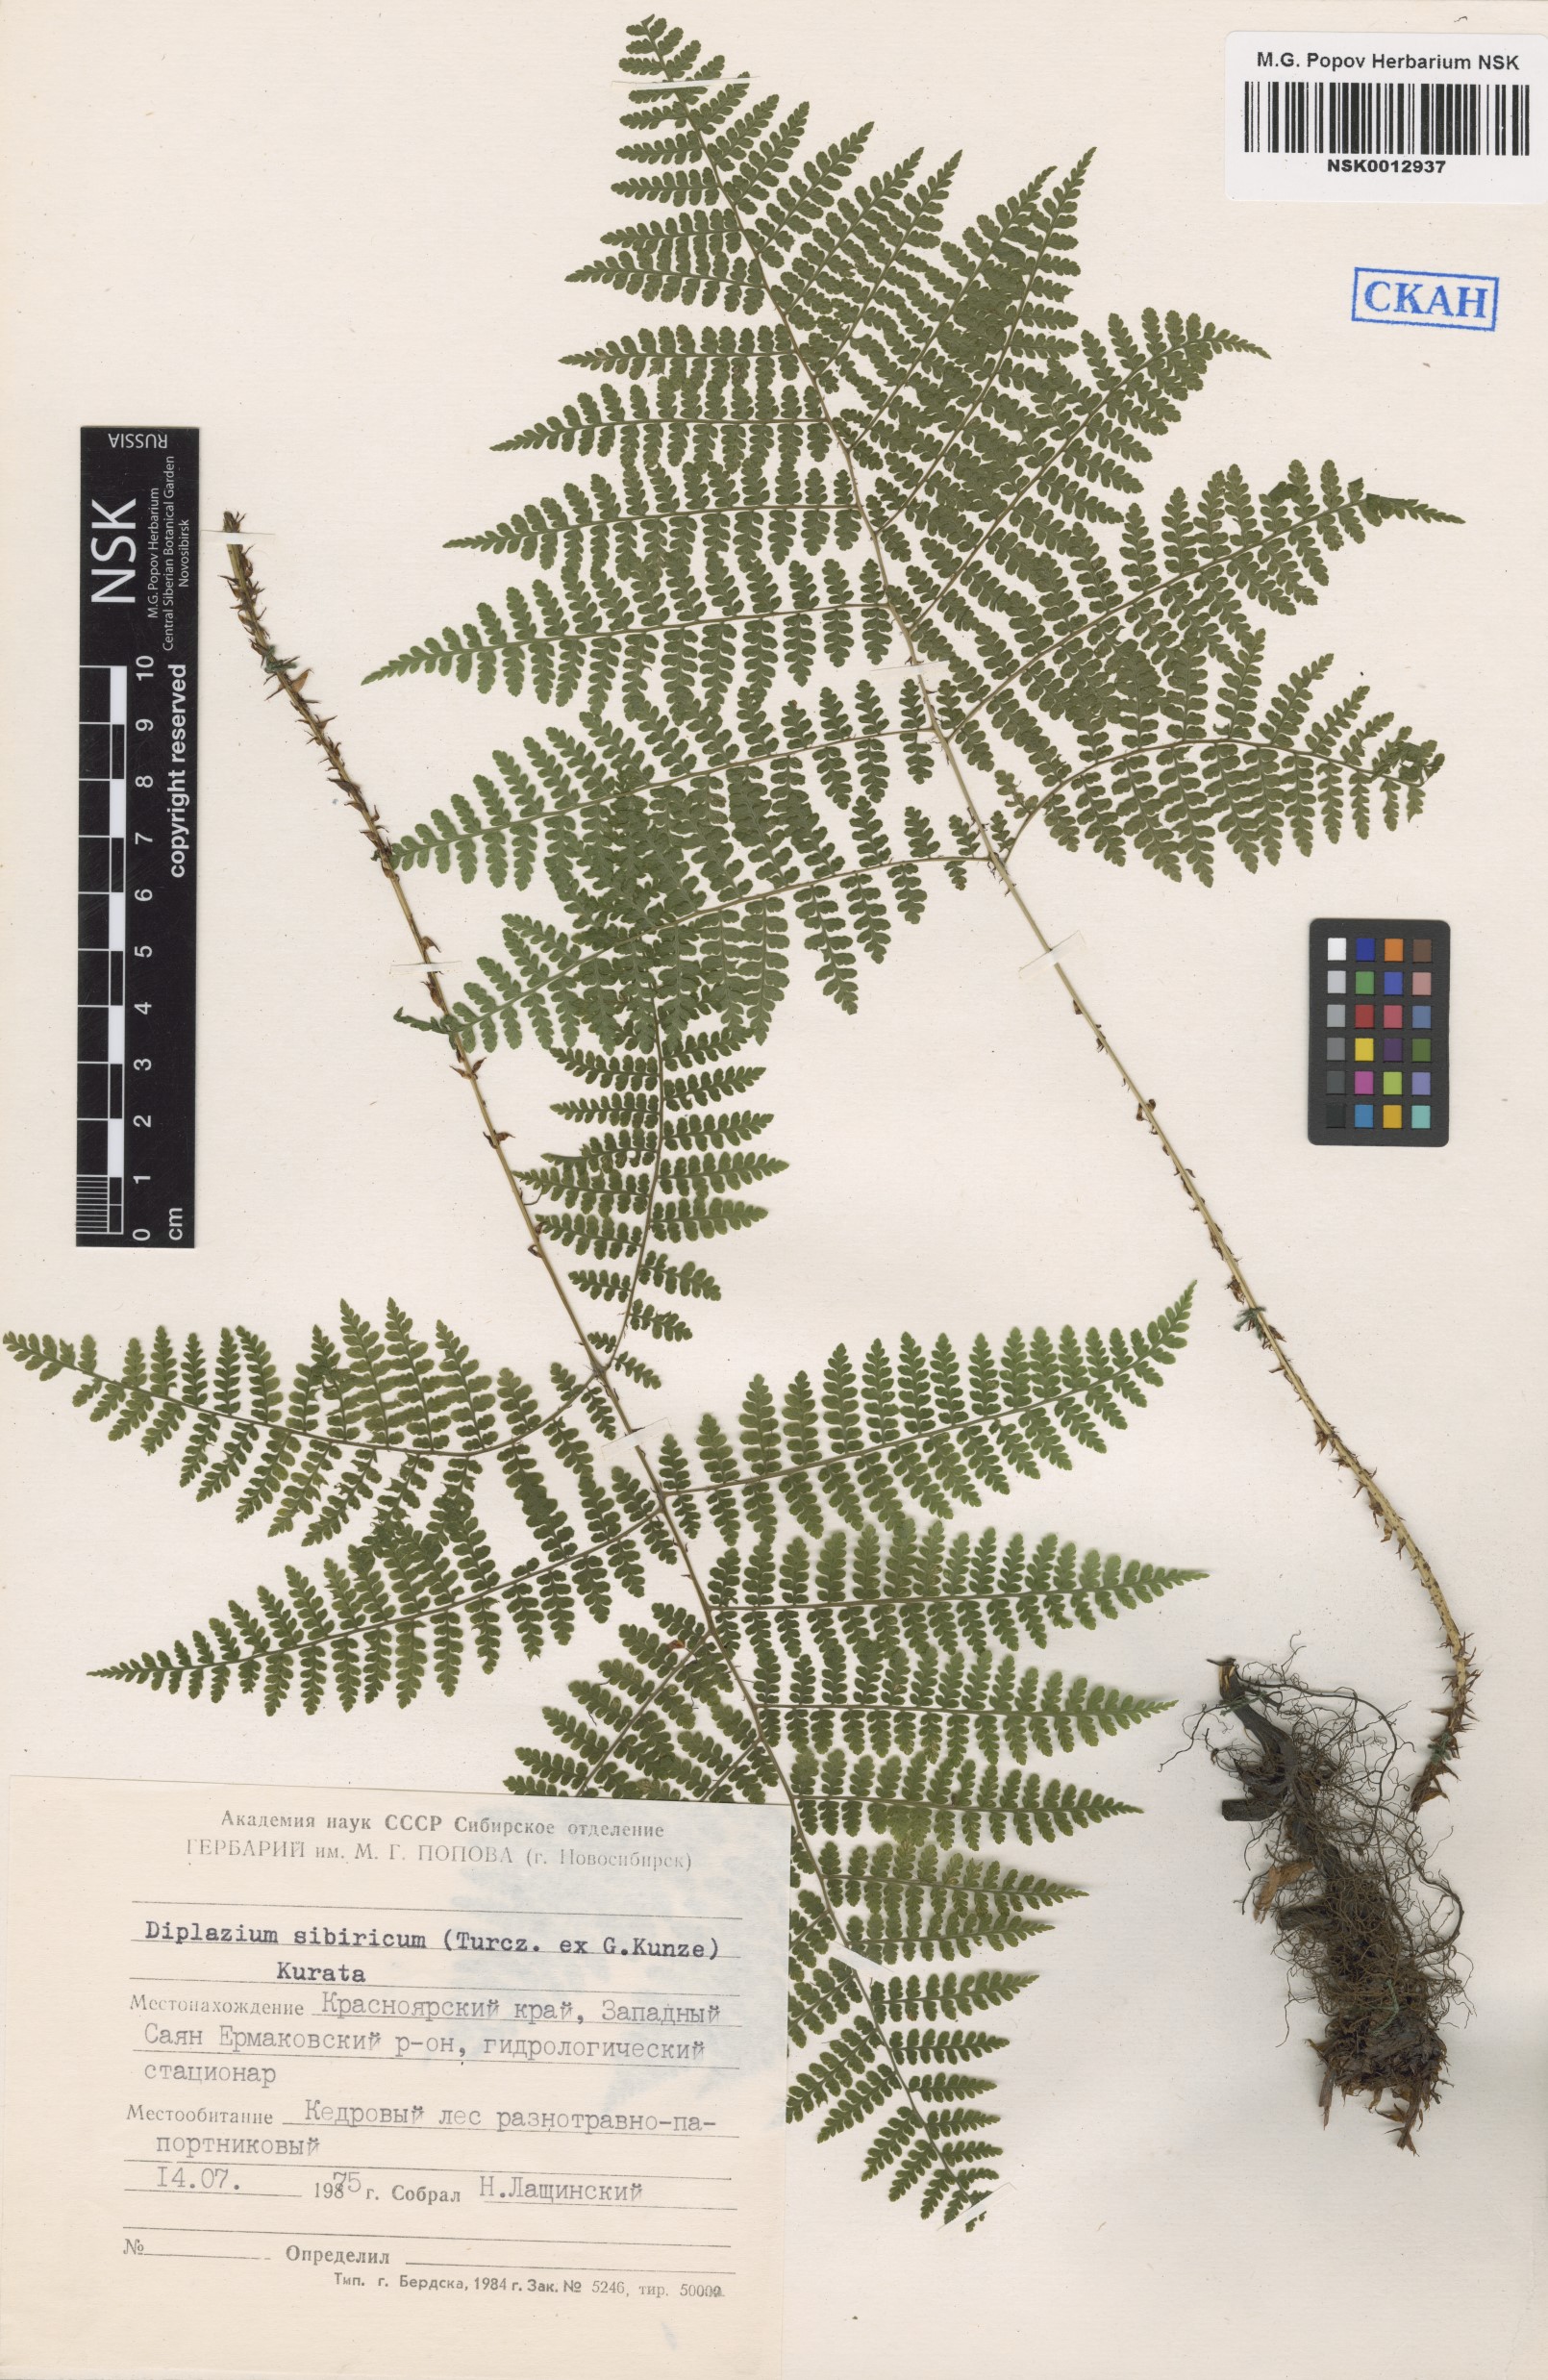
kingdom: Plantae
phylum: Tracheophyta
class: Polypodiopsida
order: Polypodiales
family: Athyriaceae
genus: Diplazium
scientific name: Diplazium sibiricum
